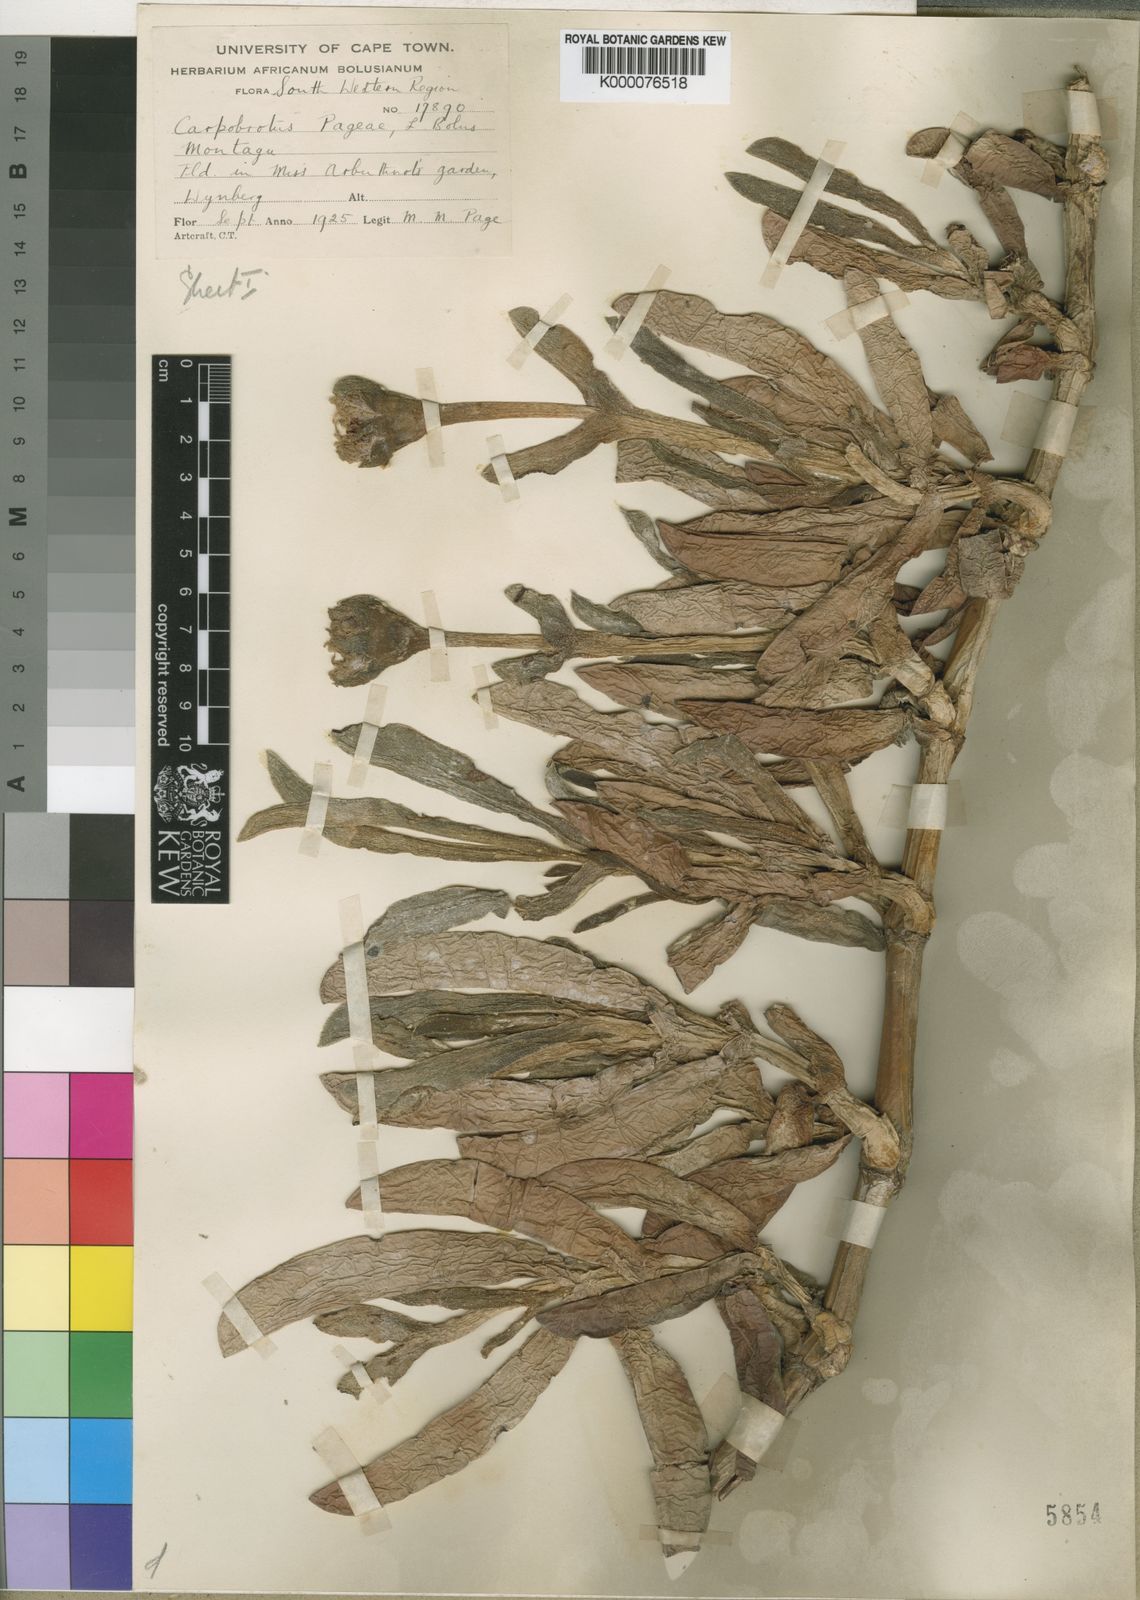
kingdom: Plantae
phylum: Tracheophyta
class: Magnoliopsida
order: Caryophyllales
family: Aizoaceae
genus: Carpobrotus
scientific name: Carpobrotus mellei
